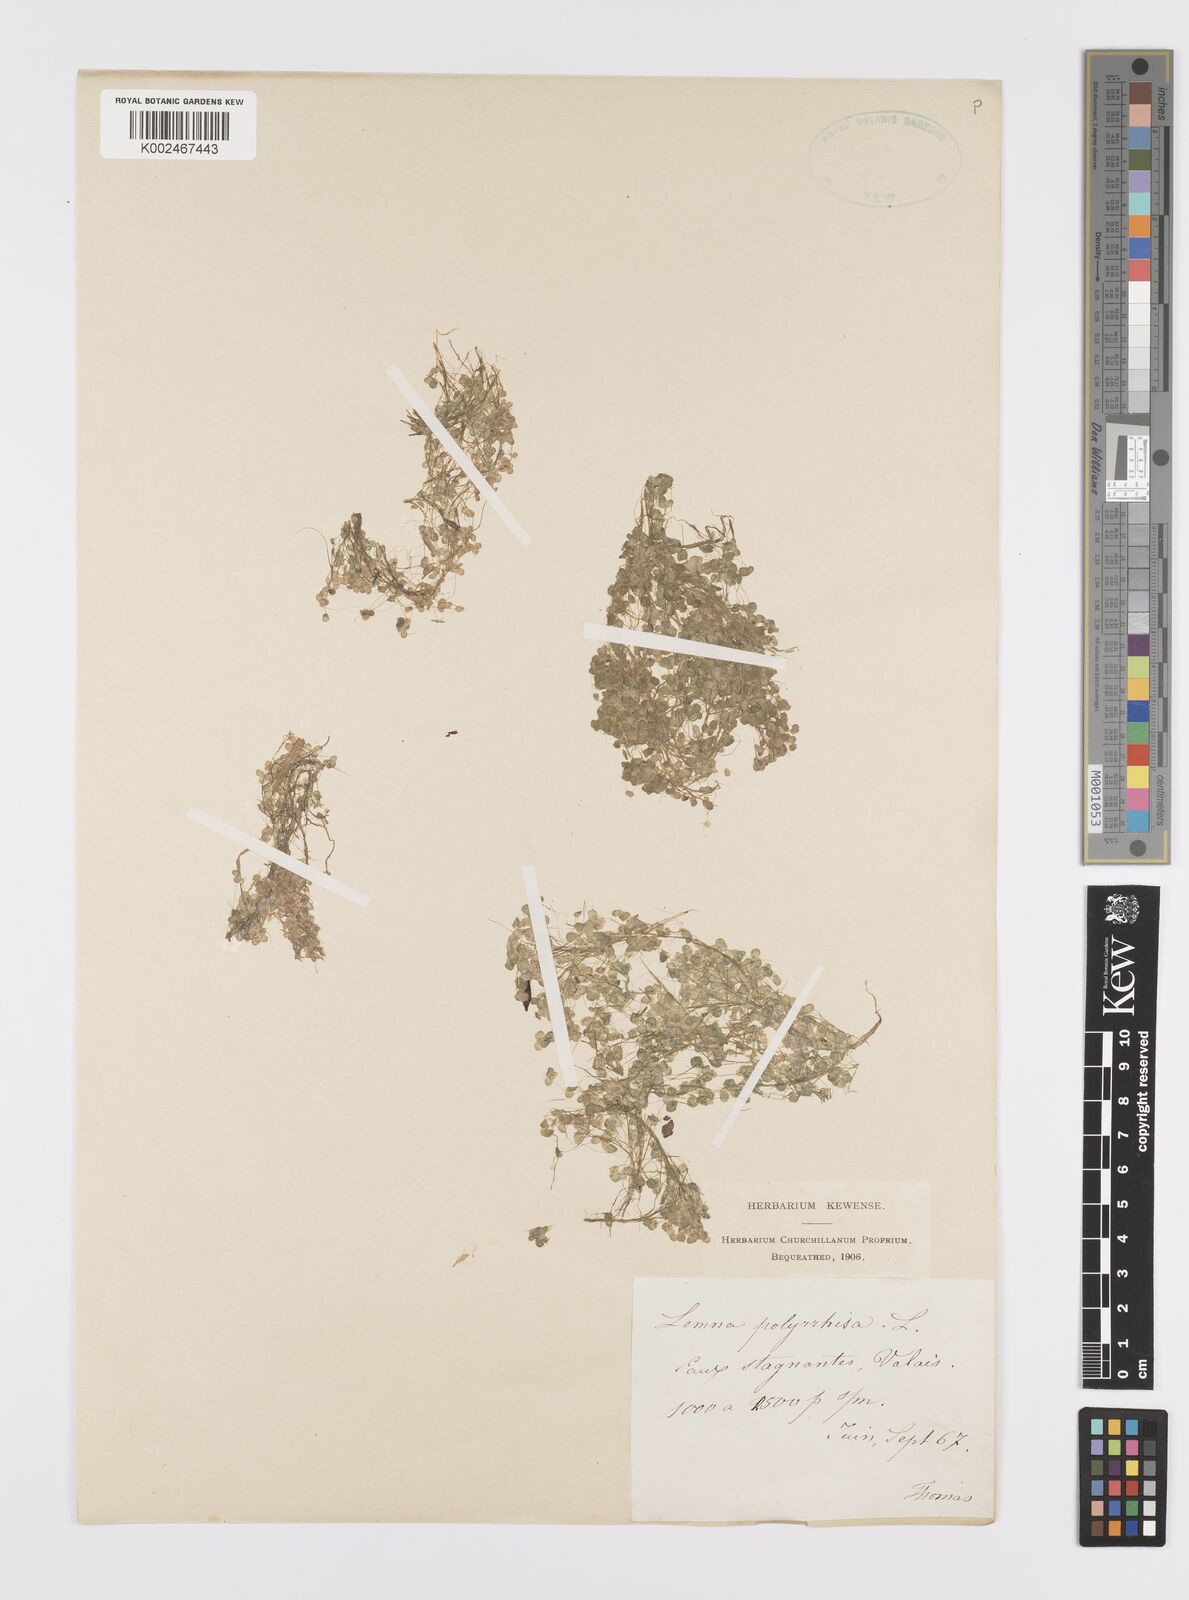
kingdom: Plantae
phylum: Tracheophyta
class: Liliopsida
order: Alismatales
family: Araceae
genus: Spirodela
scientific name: Spirodela polyrhiza
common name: Great duckweed
